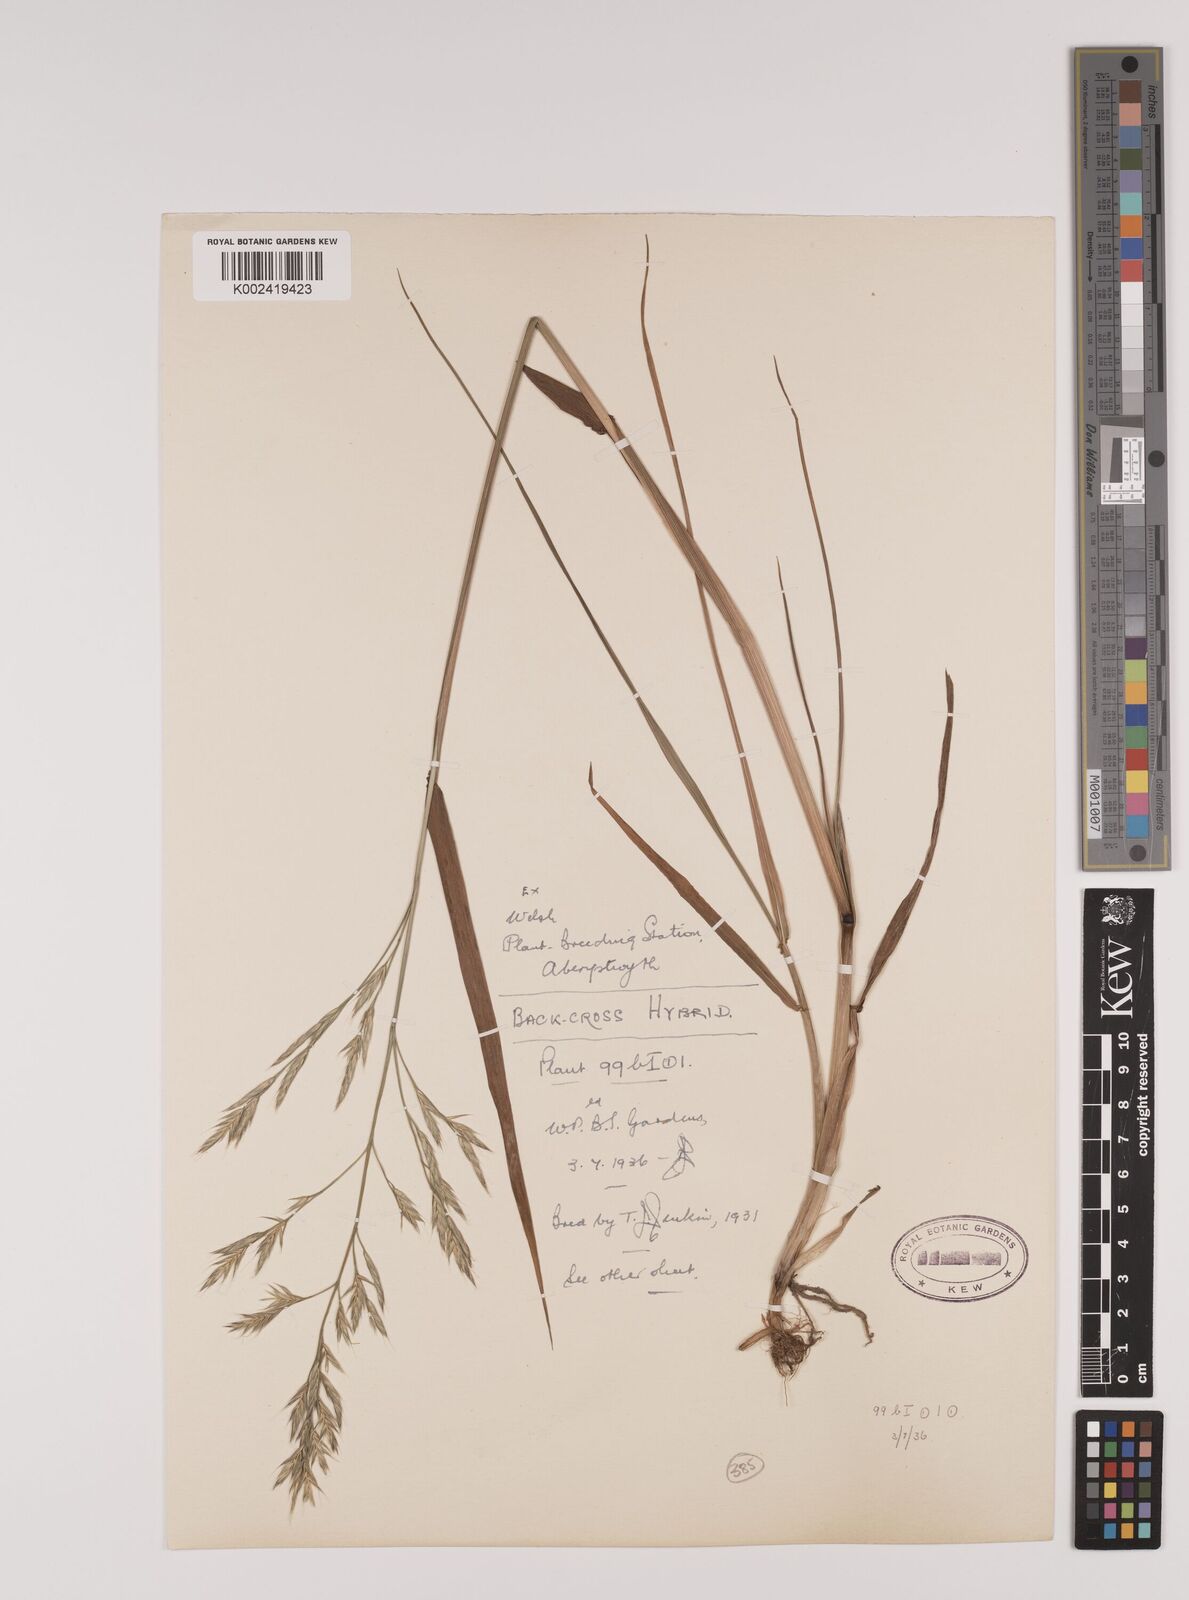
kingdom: Plantae
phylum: Tracheophyta
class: Liliopsida
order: Poales
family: Poaceae
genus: Lolium
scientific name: Lolium giganteum
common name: Giant fescue
